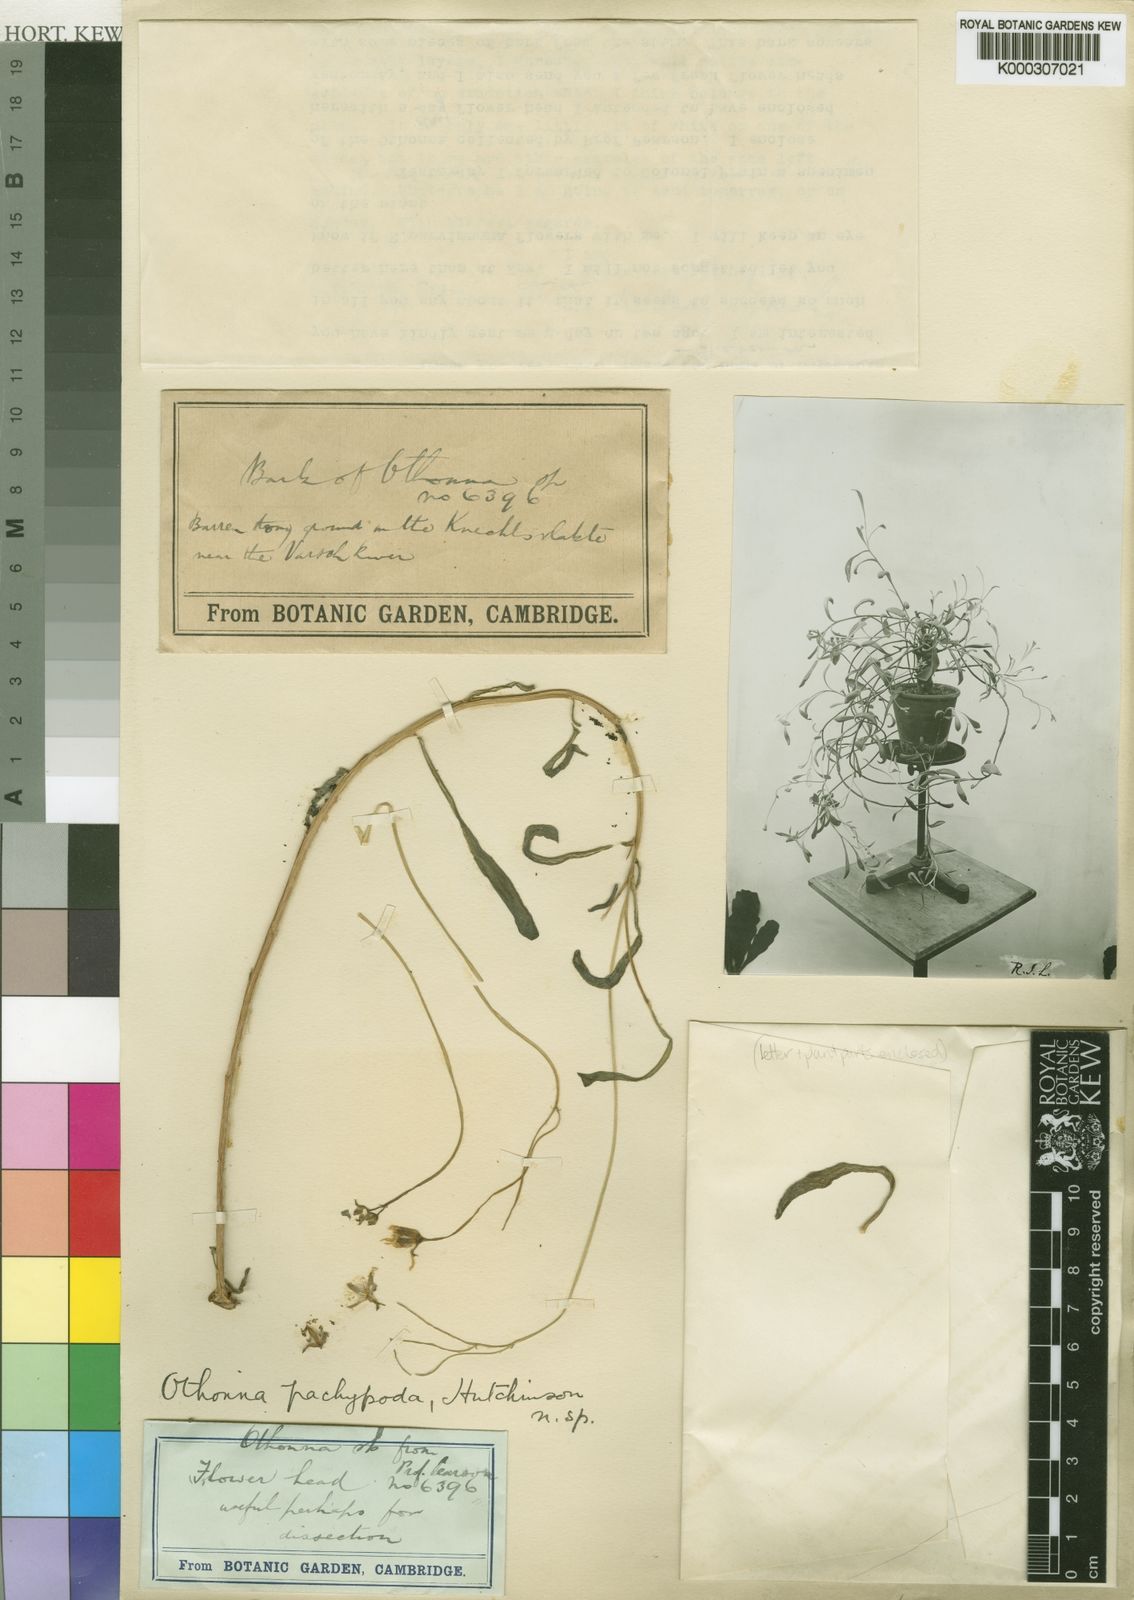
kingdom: Plantae
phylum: Tracheophyta
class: Magnoliopsida
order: Asterales
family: Asteraceae
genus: Othonna
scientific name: Othonna pachypoda
